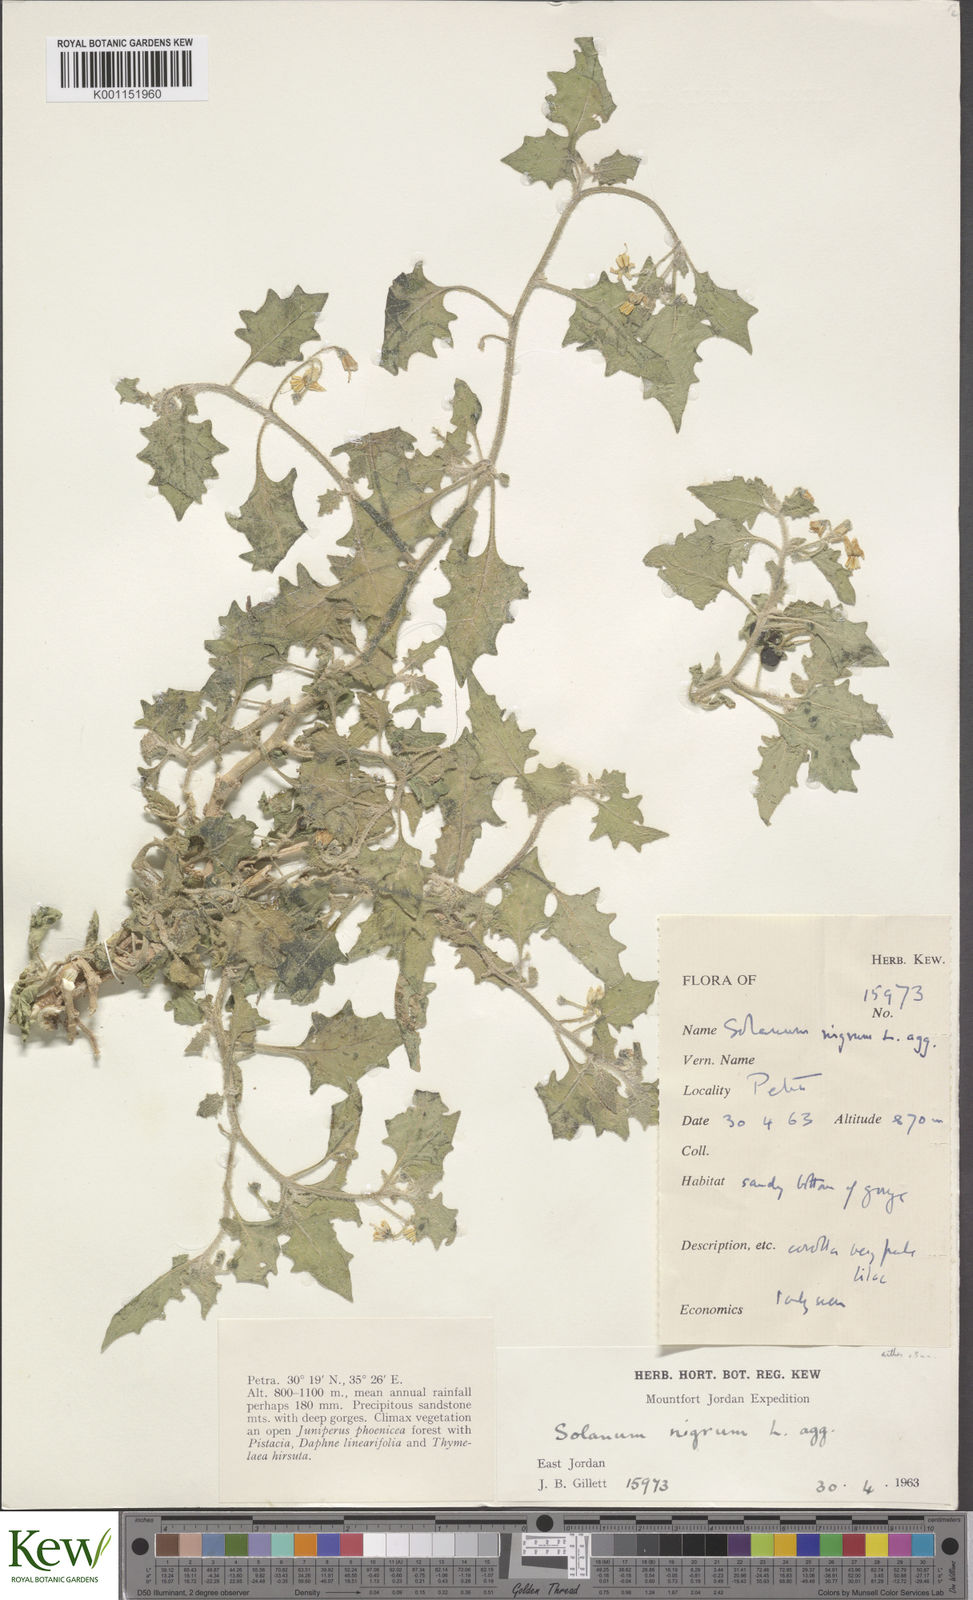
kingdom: Plantae
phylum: Tracheophyta
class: Magnoliopsida
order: Solanales
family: Solanaceae
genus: Solanum
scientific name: Solanum villosum
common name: Red nightshade
